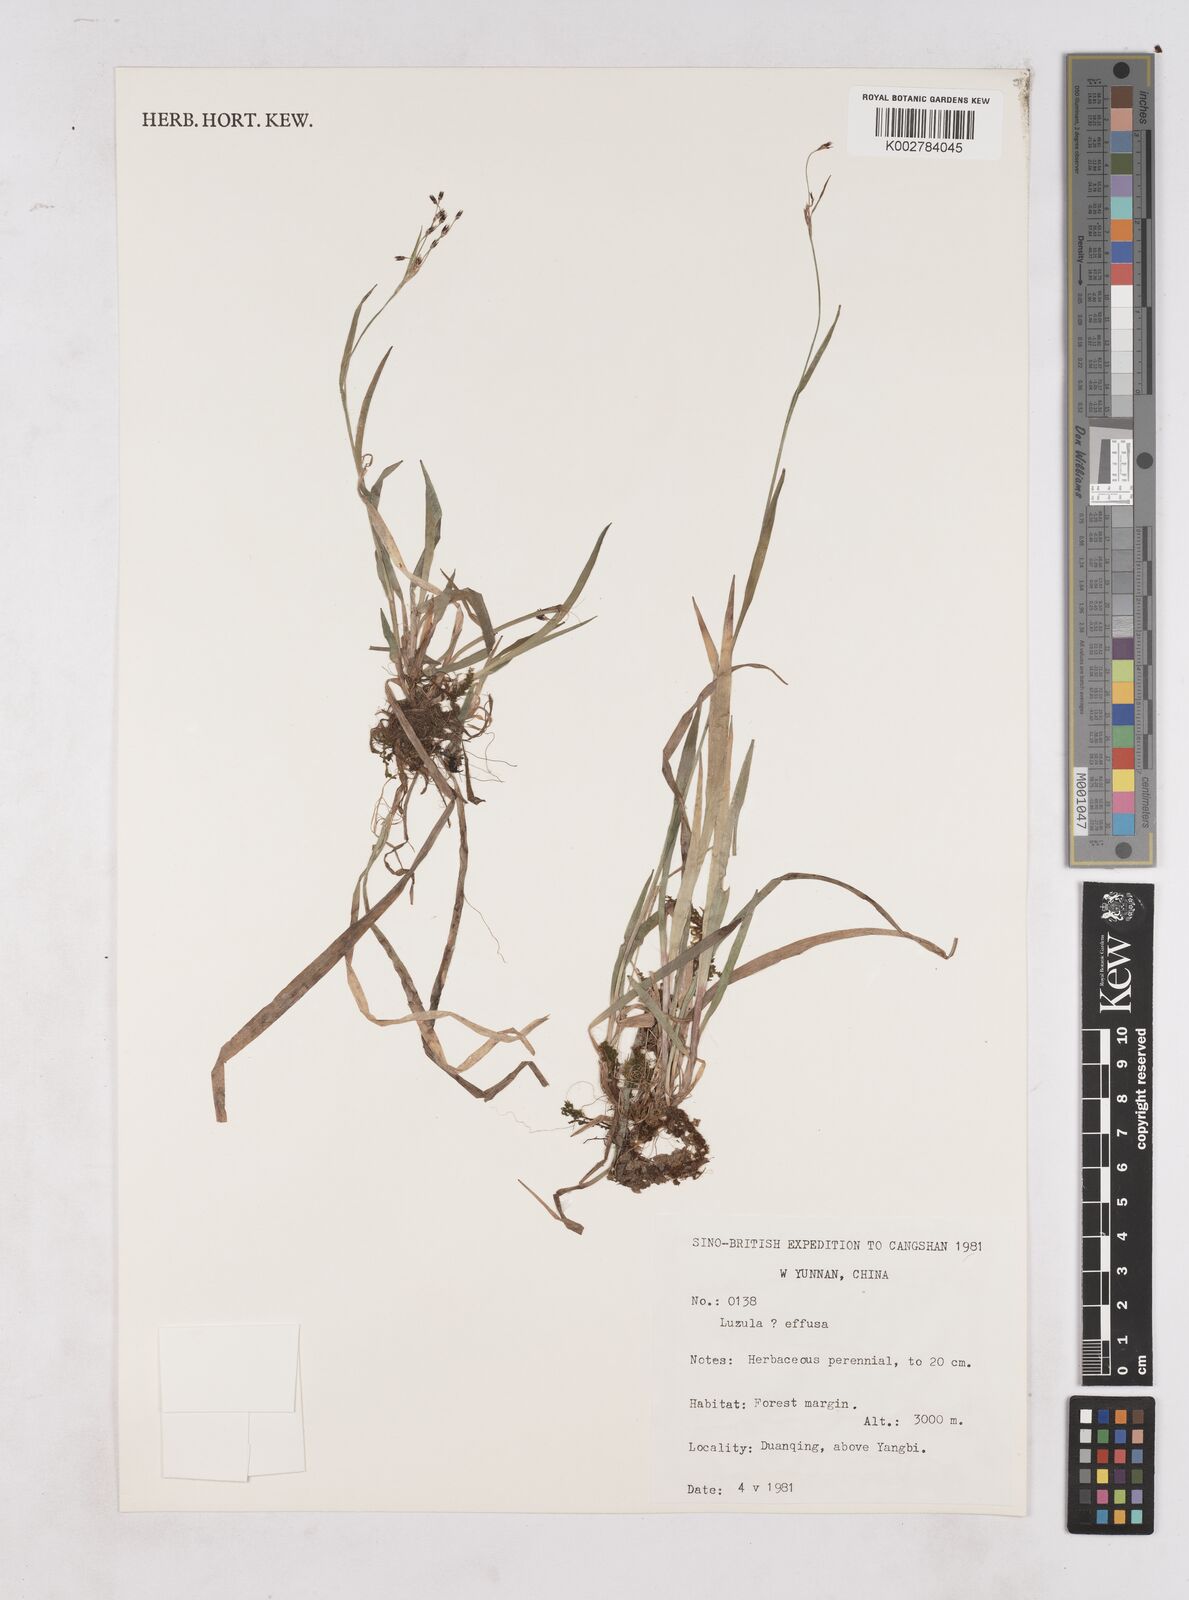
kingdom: Plantae
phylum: Tracheophyta
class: Liliopsida
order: Poales
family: Juncaceae
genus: Luzula
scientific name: Luzula
